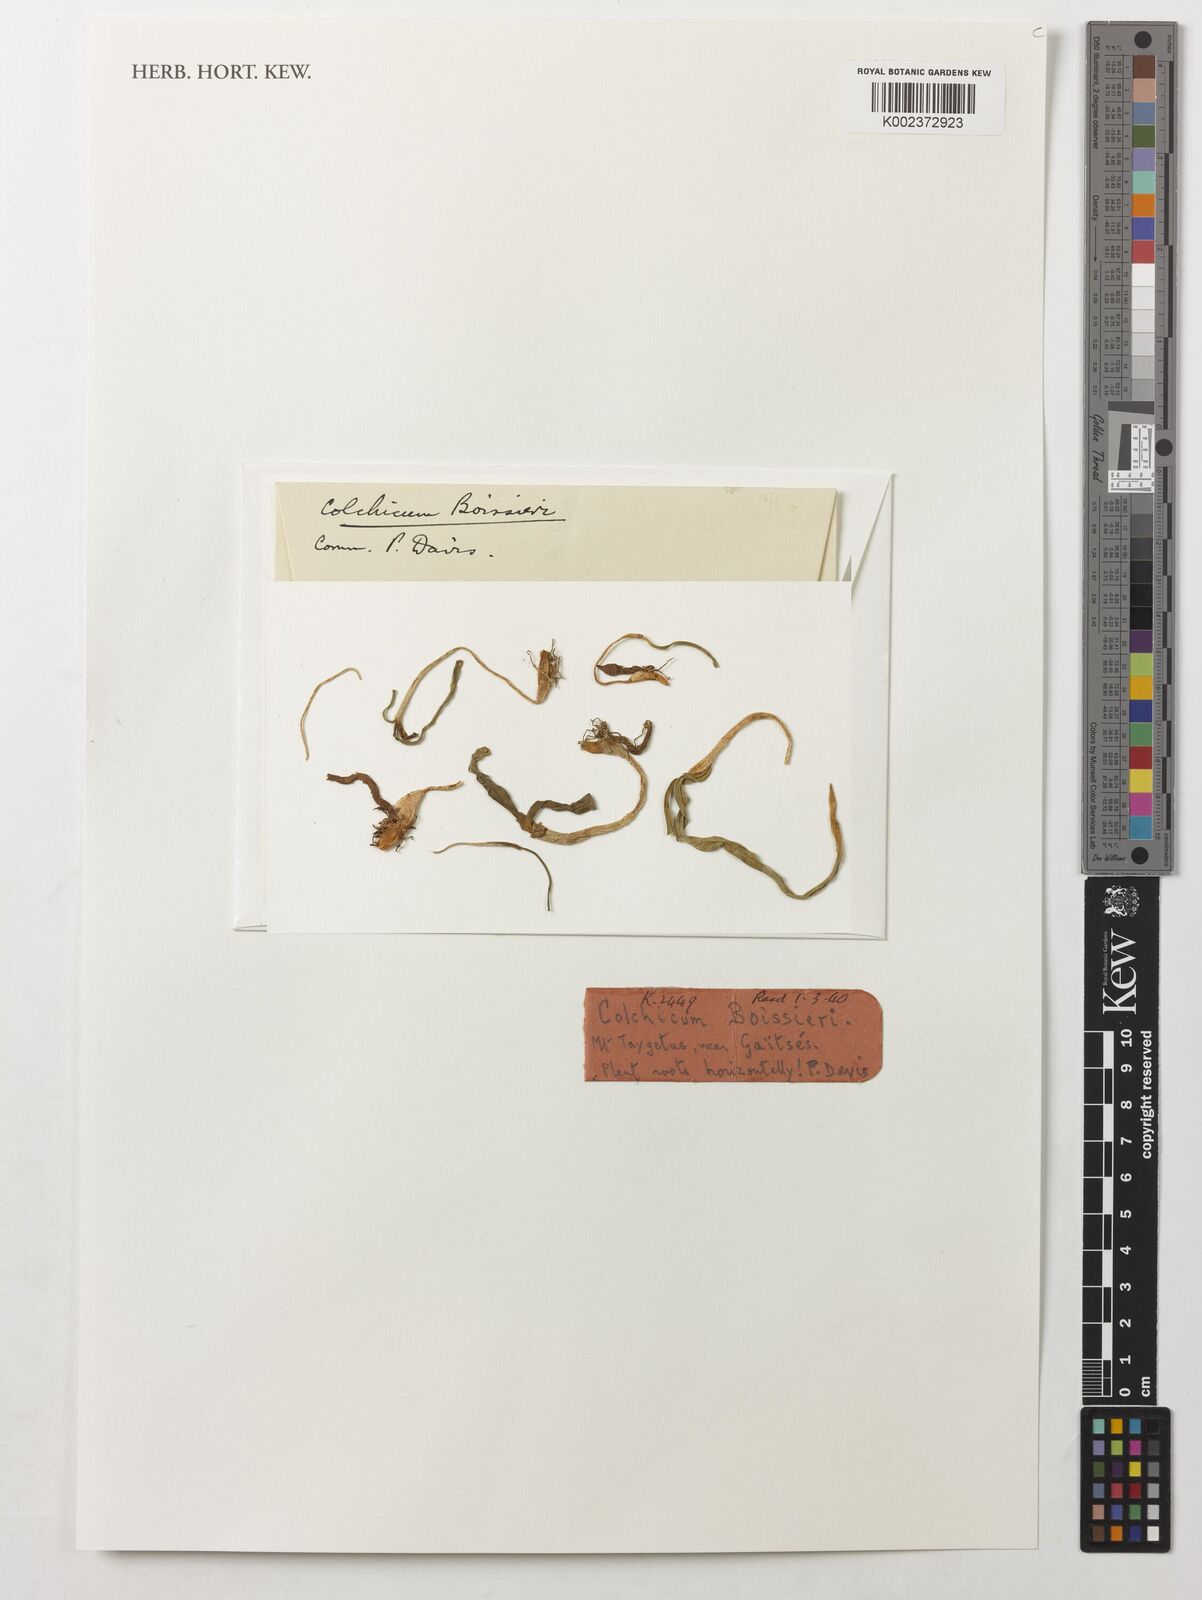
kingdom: Plantae
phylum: Tracheophyta
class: Liliopsida
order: Liliales
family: Colchicaceae
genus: Colchicum
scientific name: Colchicum boissieri
